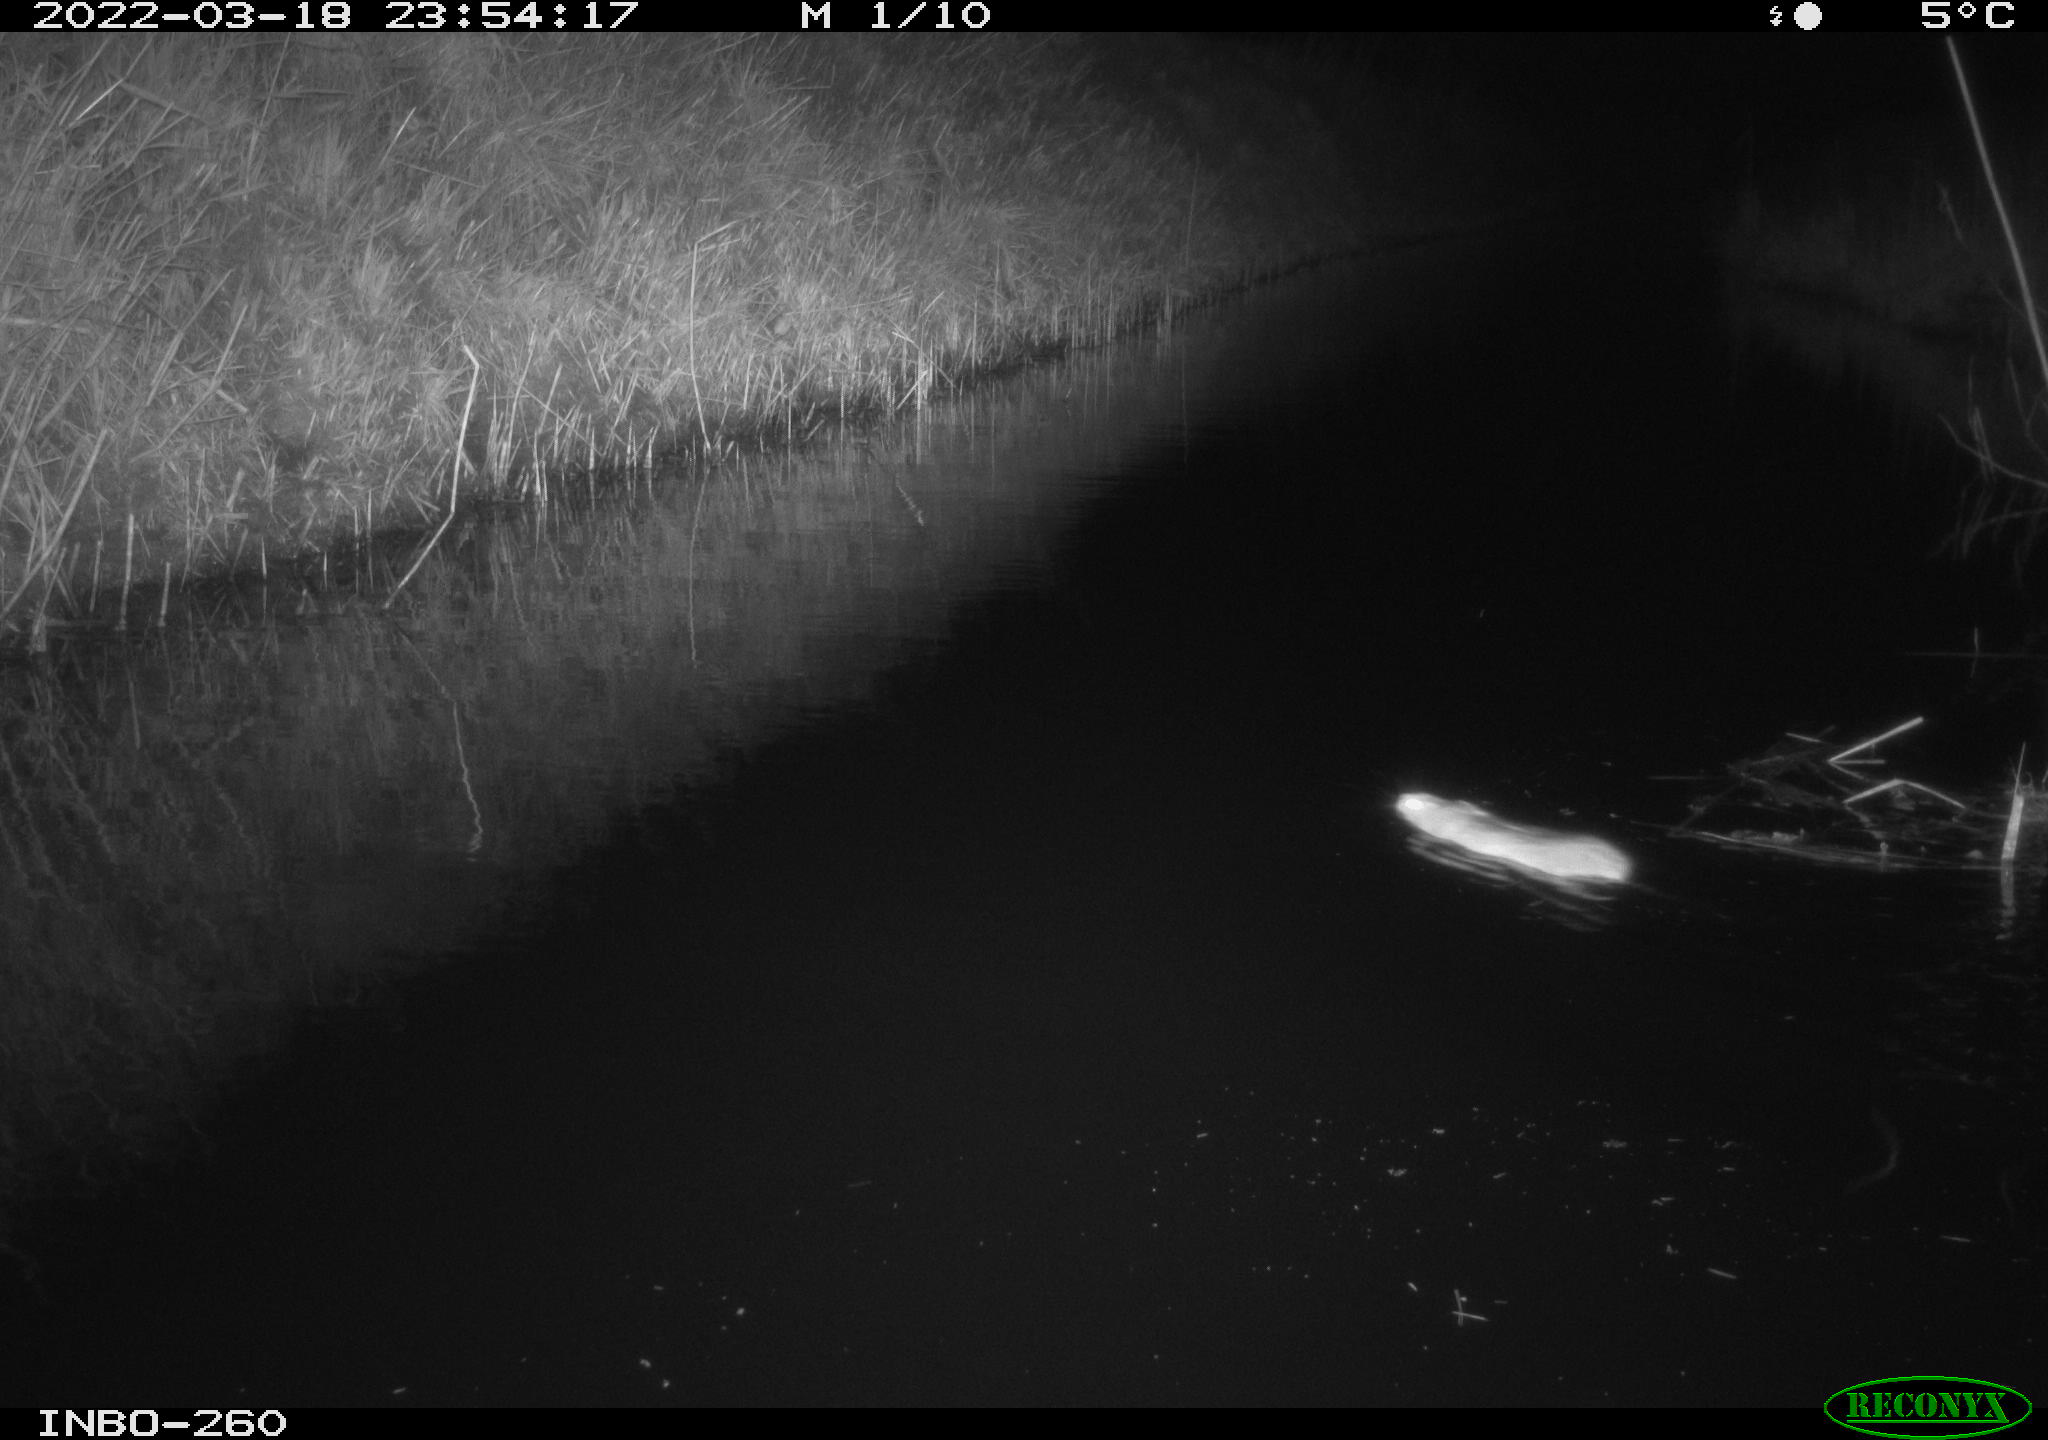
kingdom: Animalia
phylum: Chordata
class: Mammalia
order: Rodentia
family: Muridae
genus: Rattus
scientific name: Rattus norvegicus
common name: Brown rat
